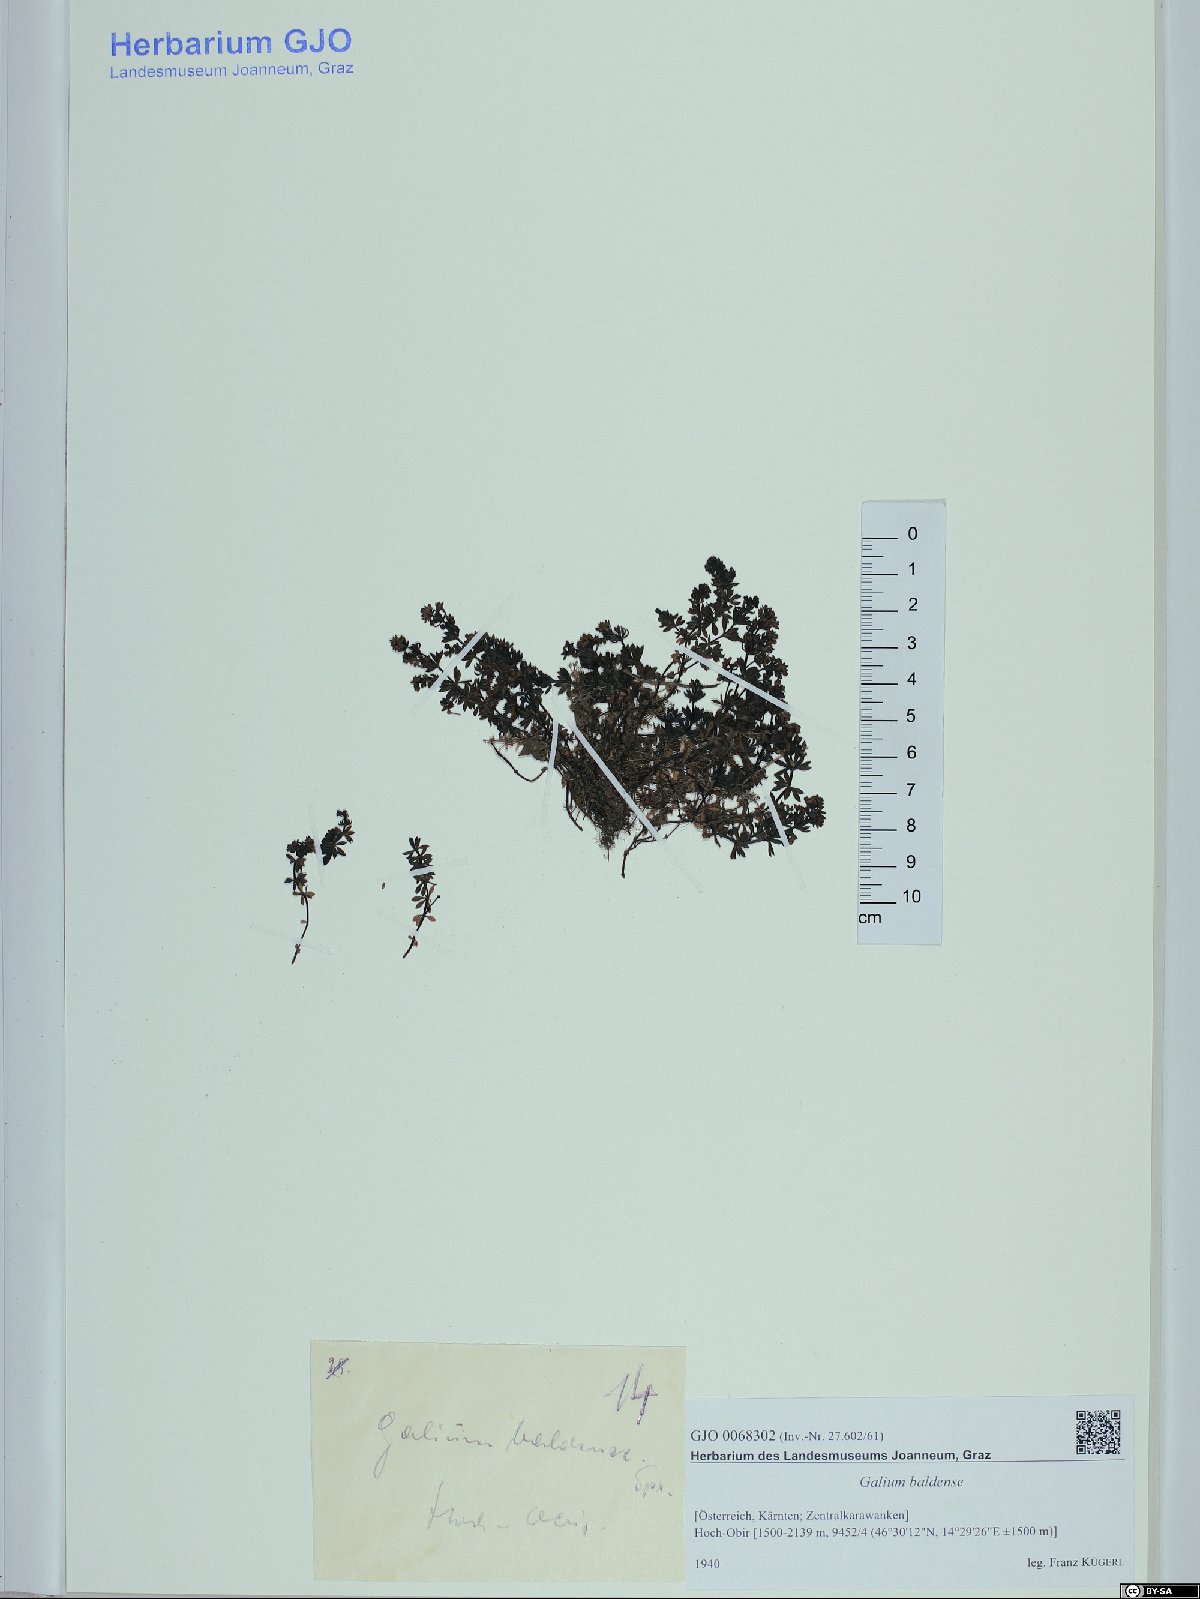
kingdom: Plantae
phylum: Tracheophyta
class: Magnoliopsida
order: Gentianales
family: Rubiaceae
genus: Galium
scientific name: Galium baldense
